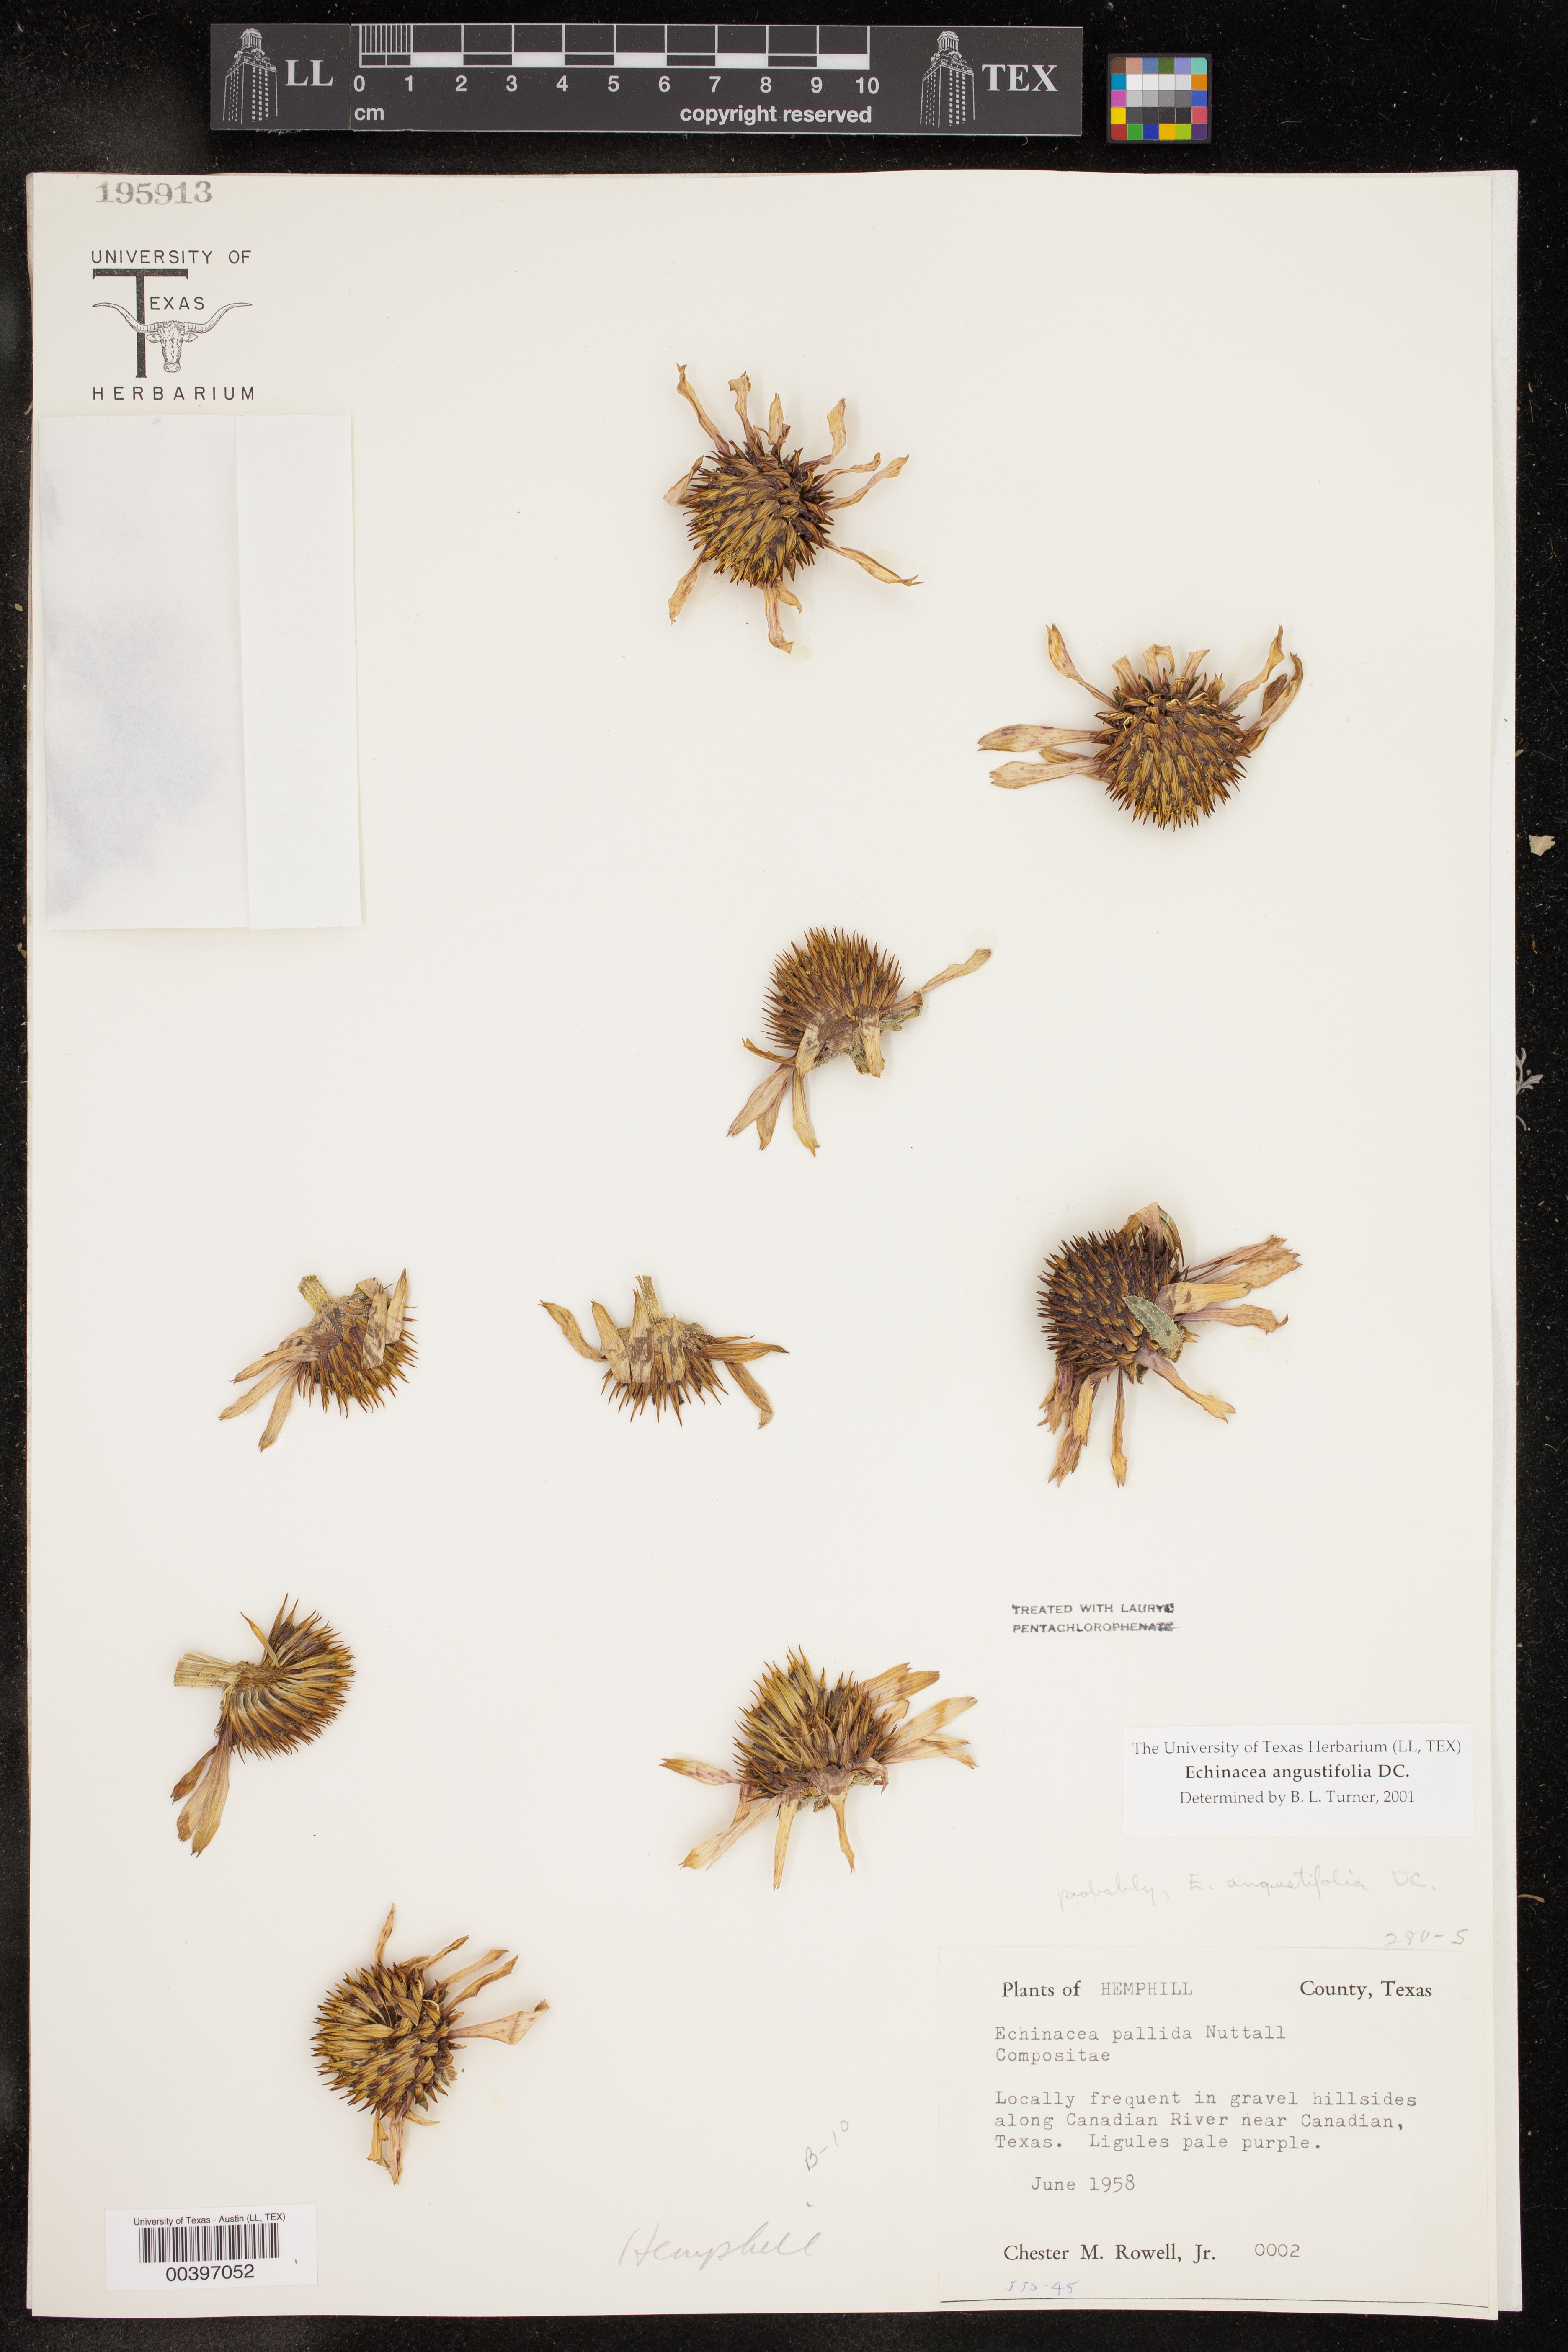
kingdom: Plantae
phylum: Tracheophyta
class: Magnoliopsida
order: Asterales
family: Asteraceae
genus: Echinacea
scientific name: Echinacea angustifolia
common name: Black-sampson echinacea
